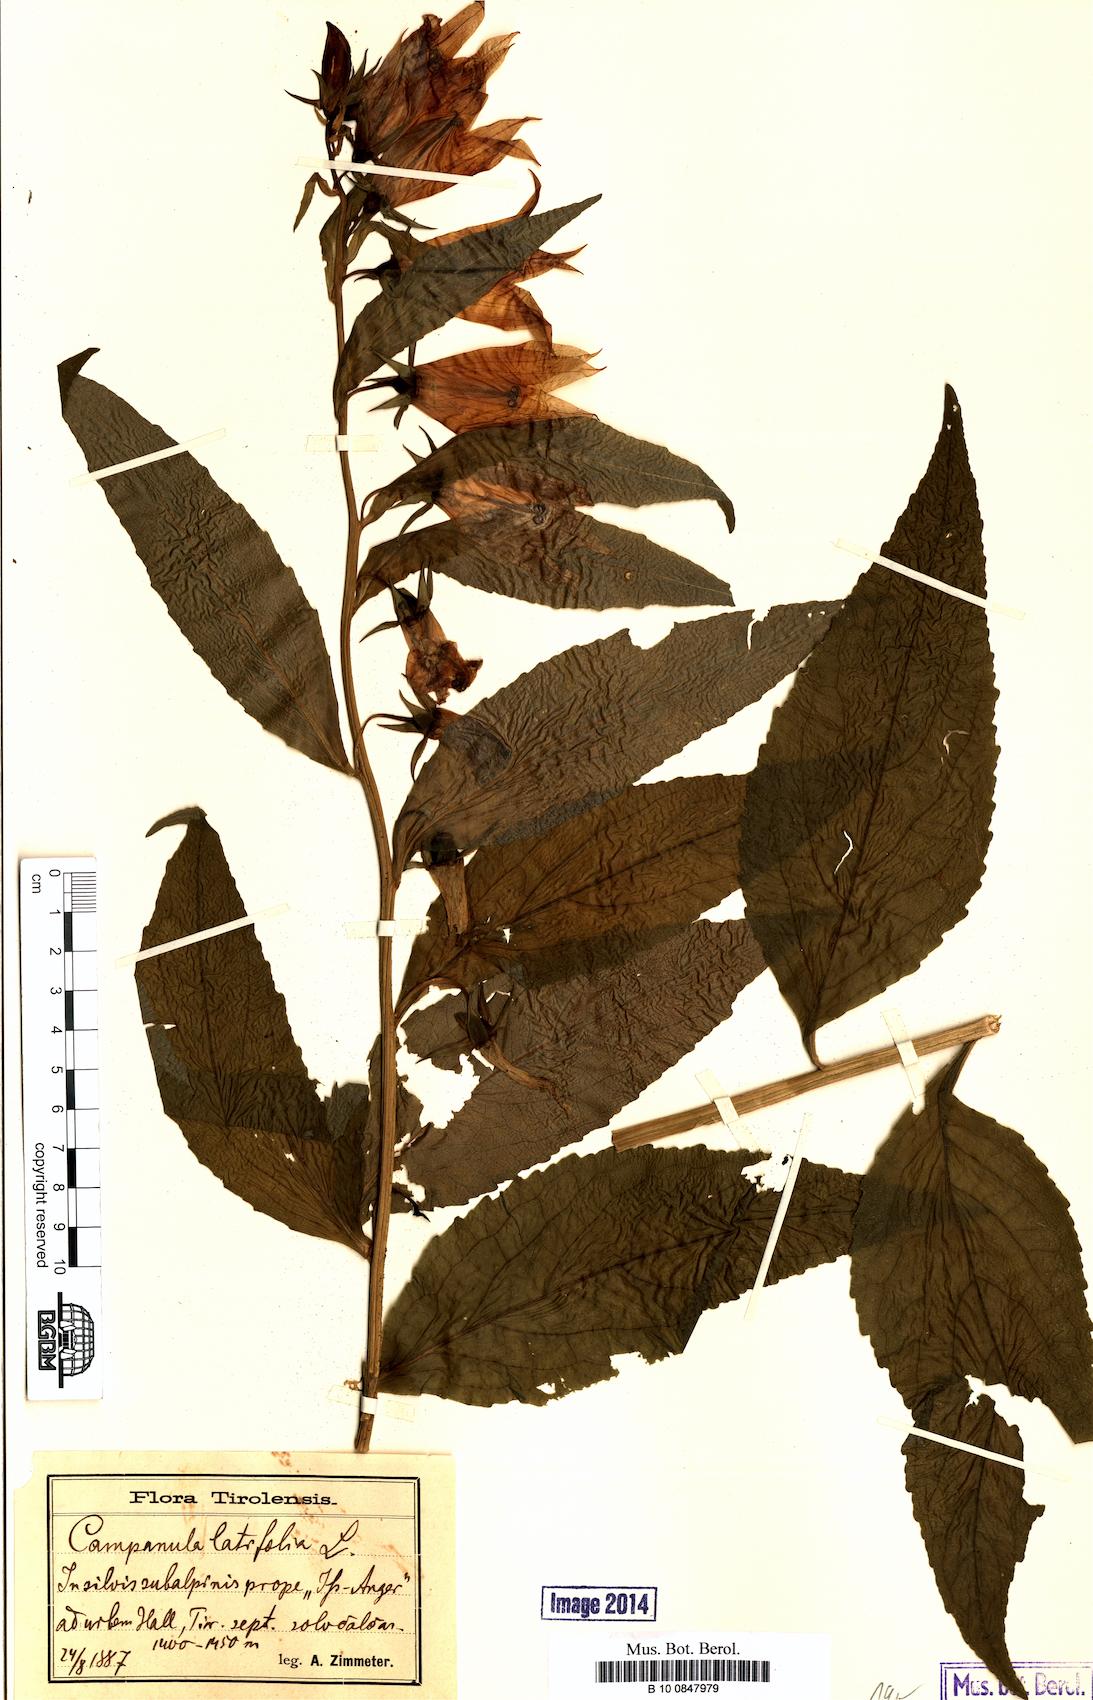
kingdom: Plantae
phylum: Tracheophyta
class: Magnoliopsida
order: Asterales
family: Campanulaceae
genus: Campanula
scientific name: Campanula latifolia
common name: Giant bellflower
